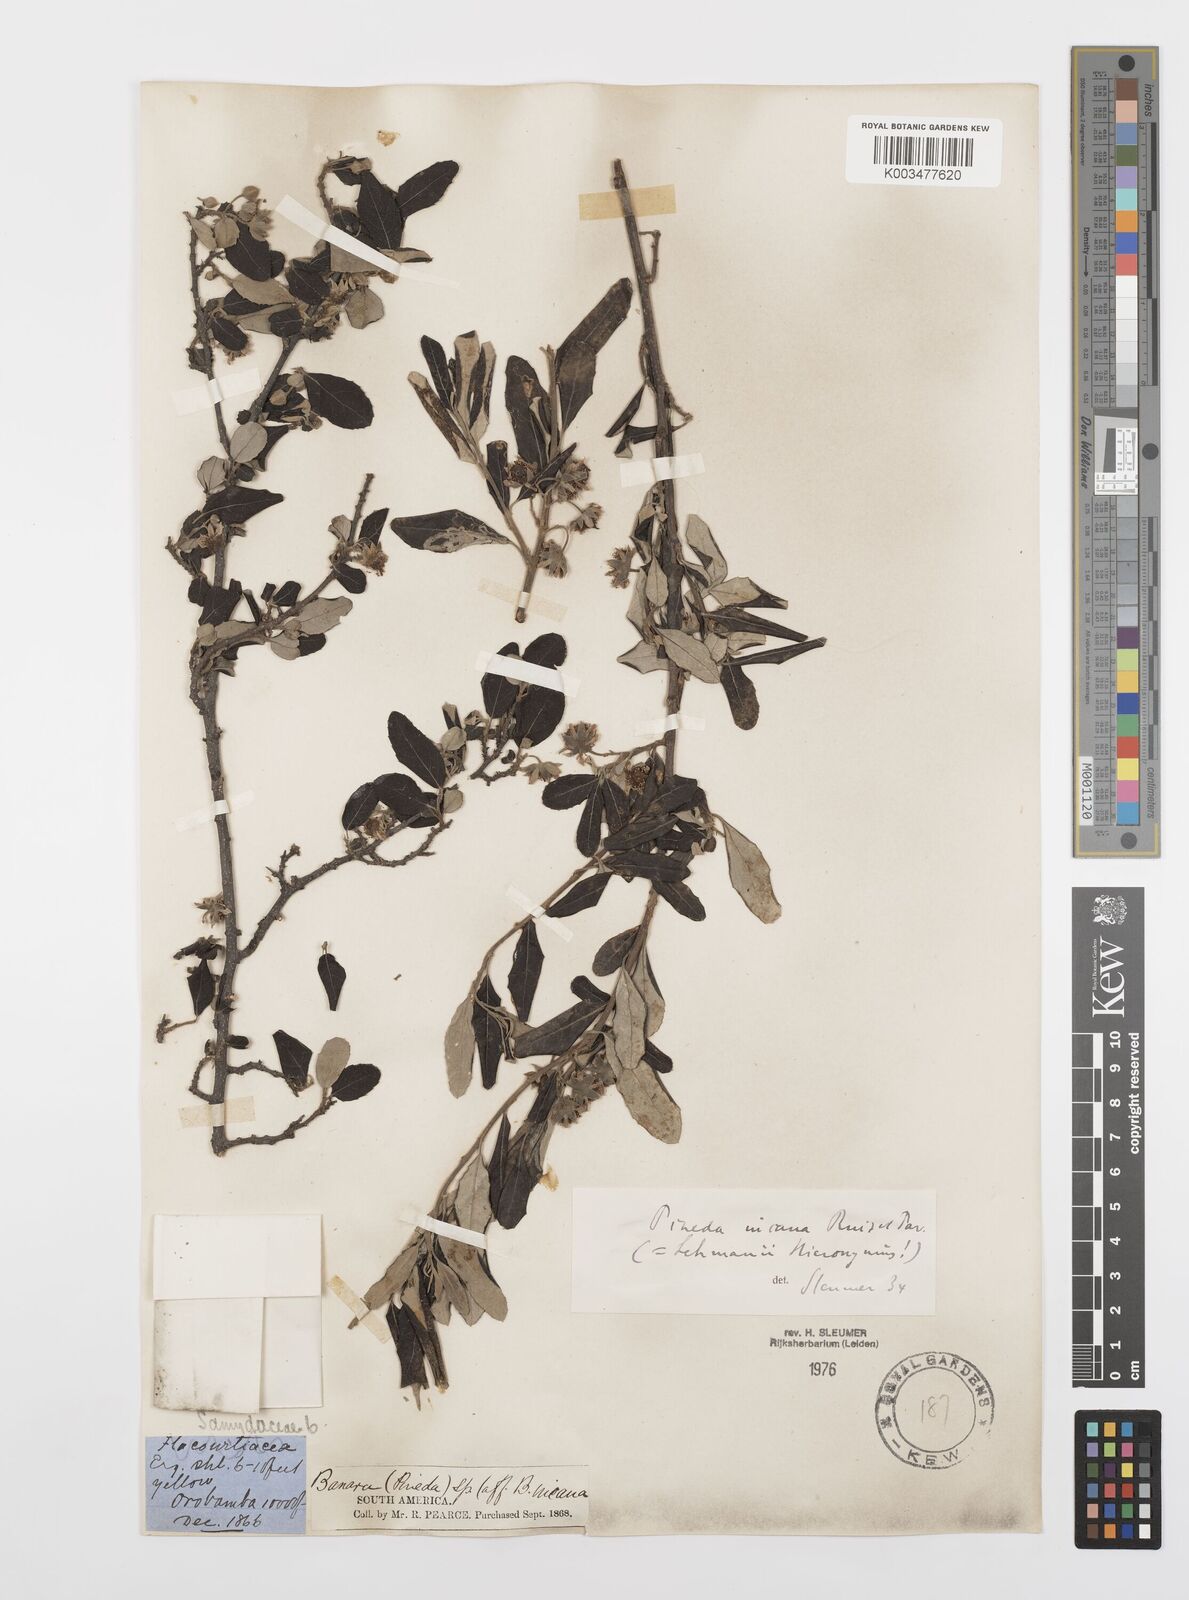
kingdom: Plantae
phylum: Tracheophyta
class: Magnoliopsida
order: Malpighiales
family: Salicaceae
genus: Pineda
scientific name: Pineda incana
